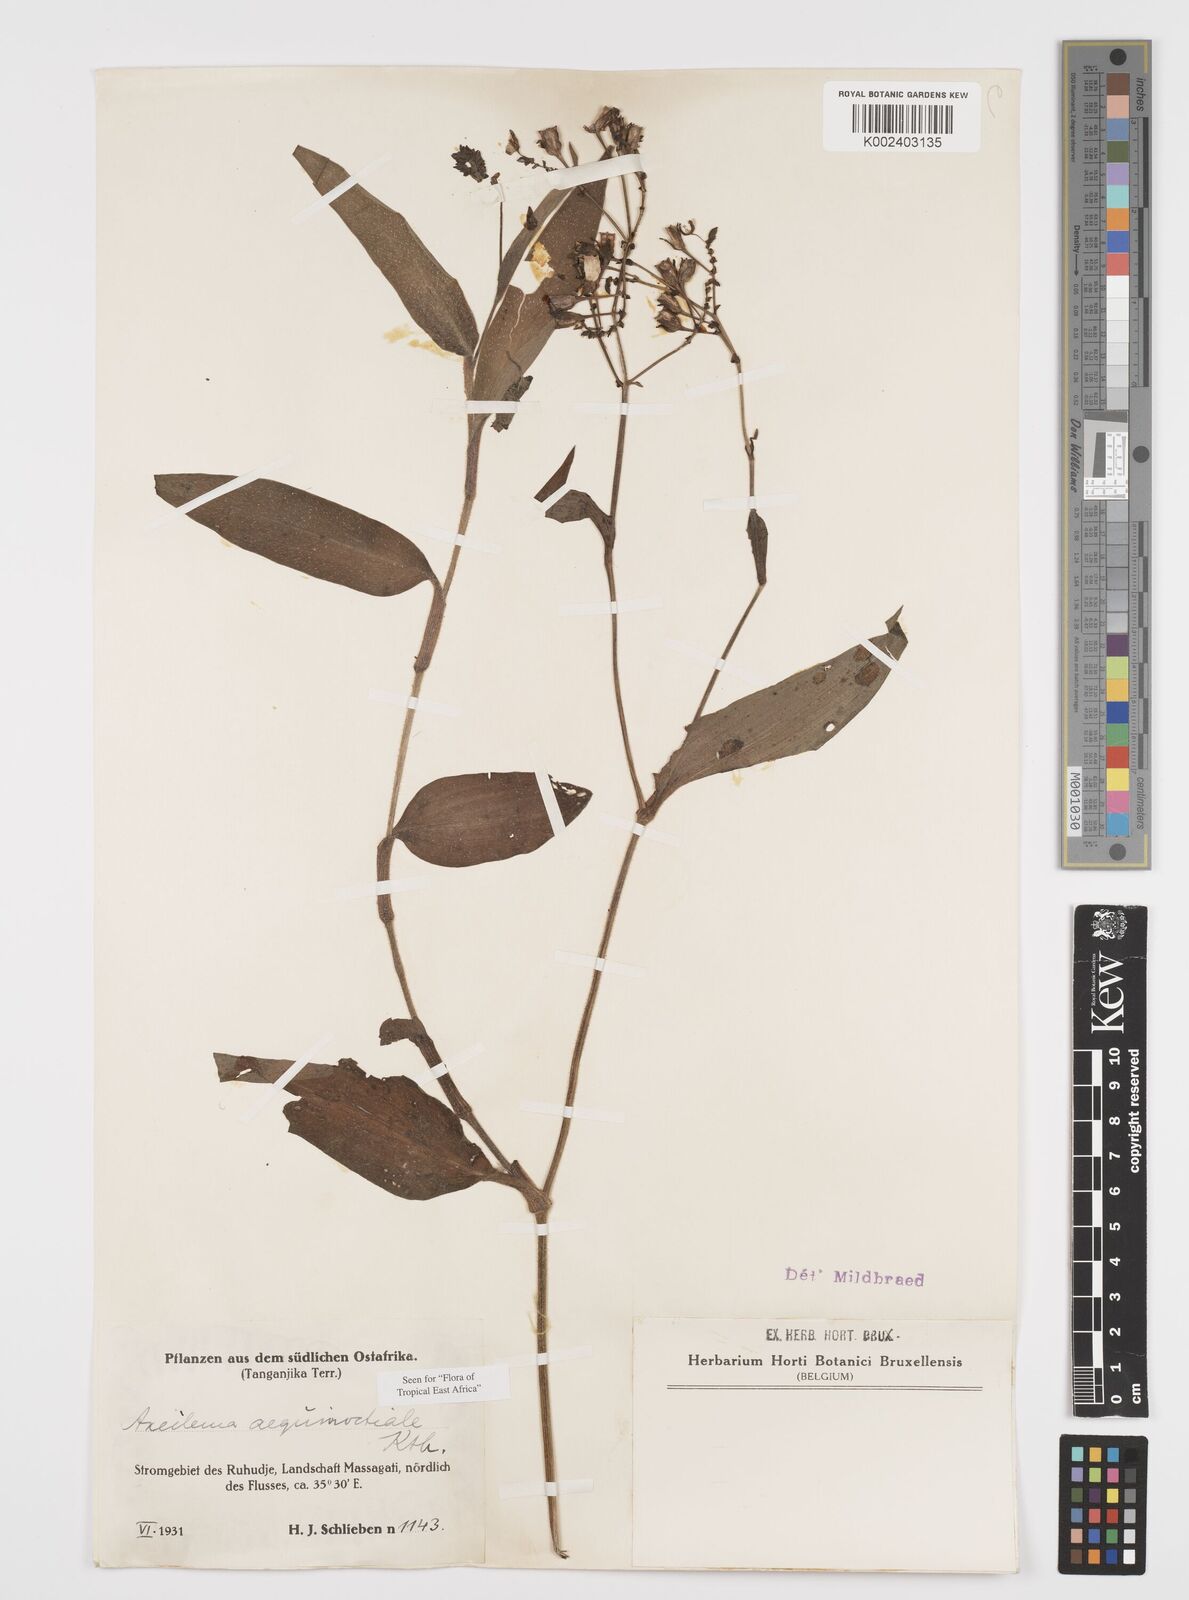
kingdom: Plantae
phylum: Tracheophyta
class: Liliopsida
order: Commelinales
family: Commelinaceae
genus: Aneilema
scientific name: Aneilema aequinoctiale
